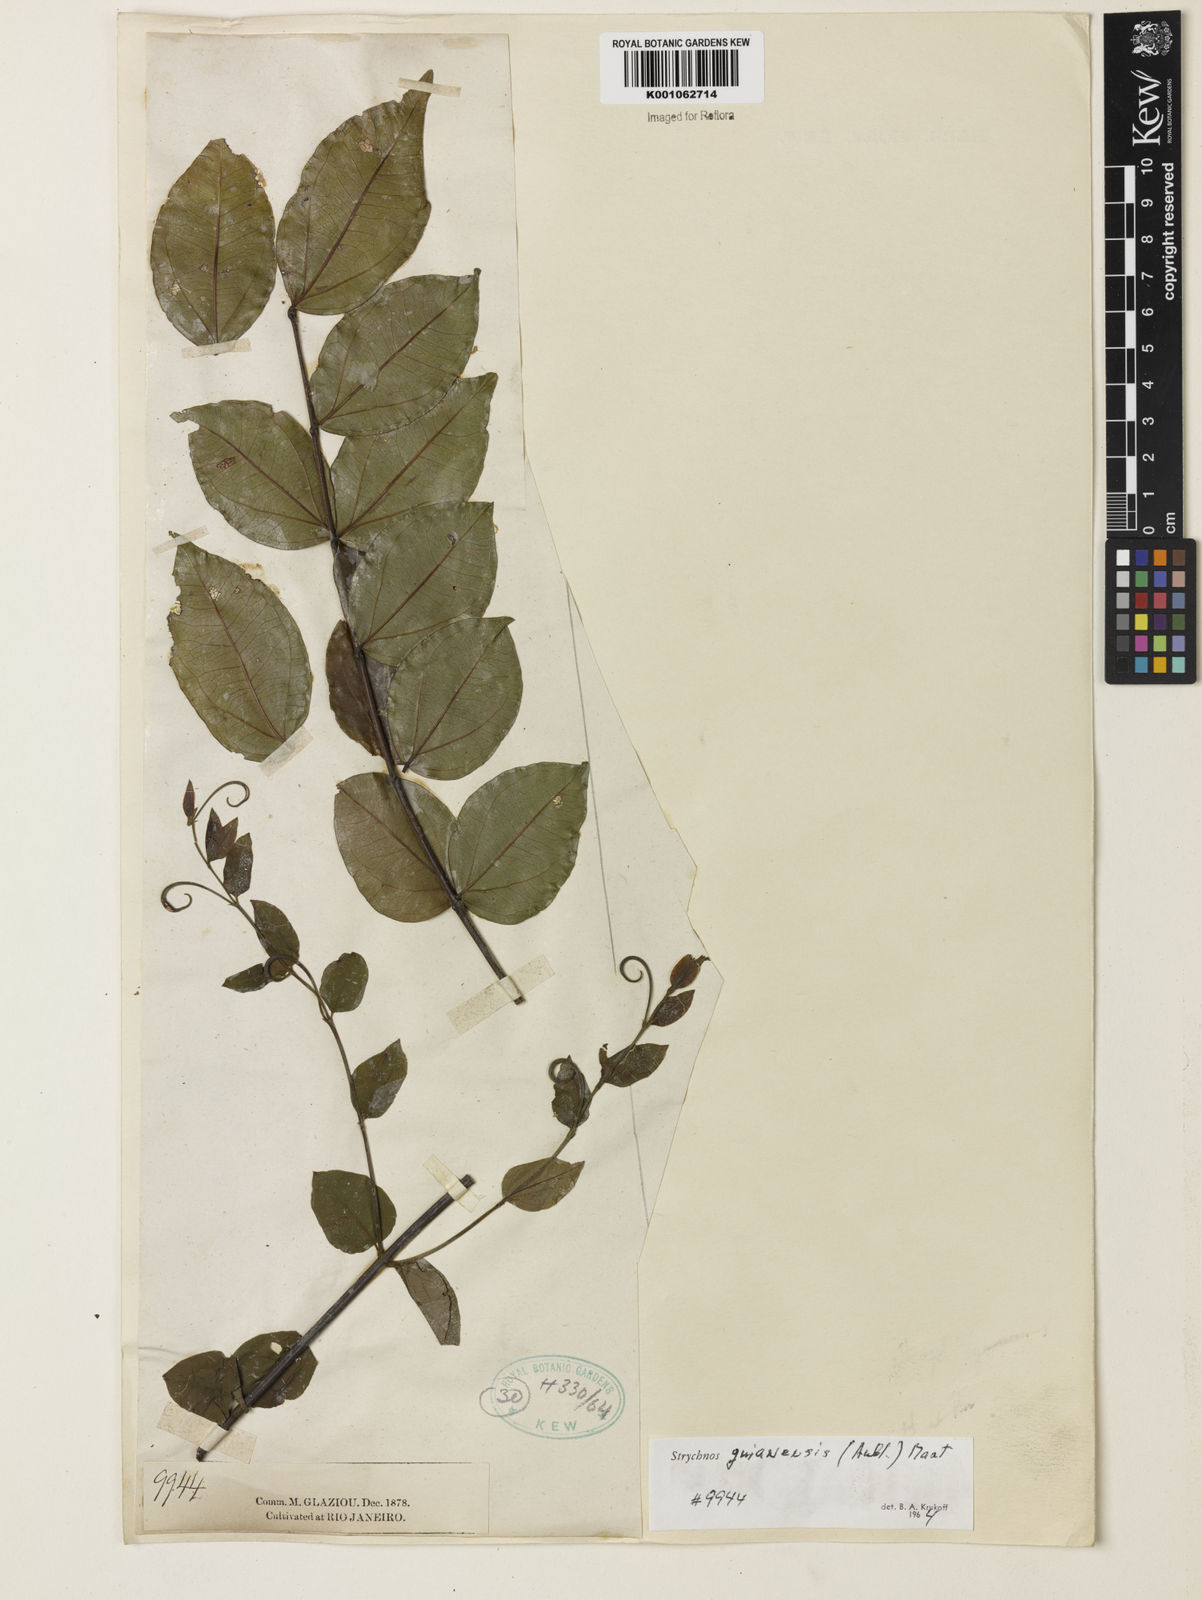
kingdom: Plantae
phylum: Tracheophyta
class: Magnoliopsida
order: Gentianales
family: Loganiaceae
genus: Strychnos
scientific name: Strychnos guianensis
